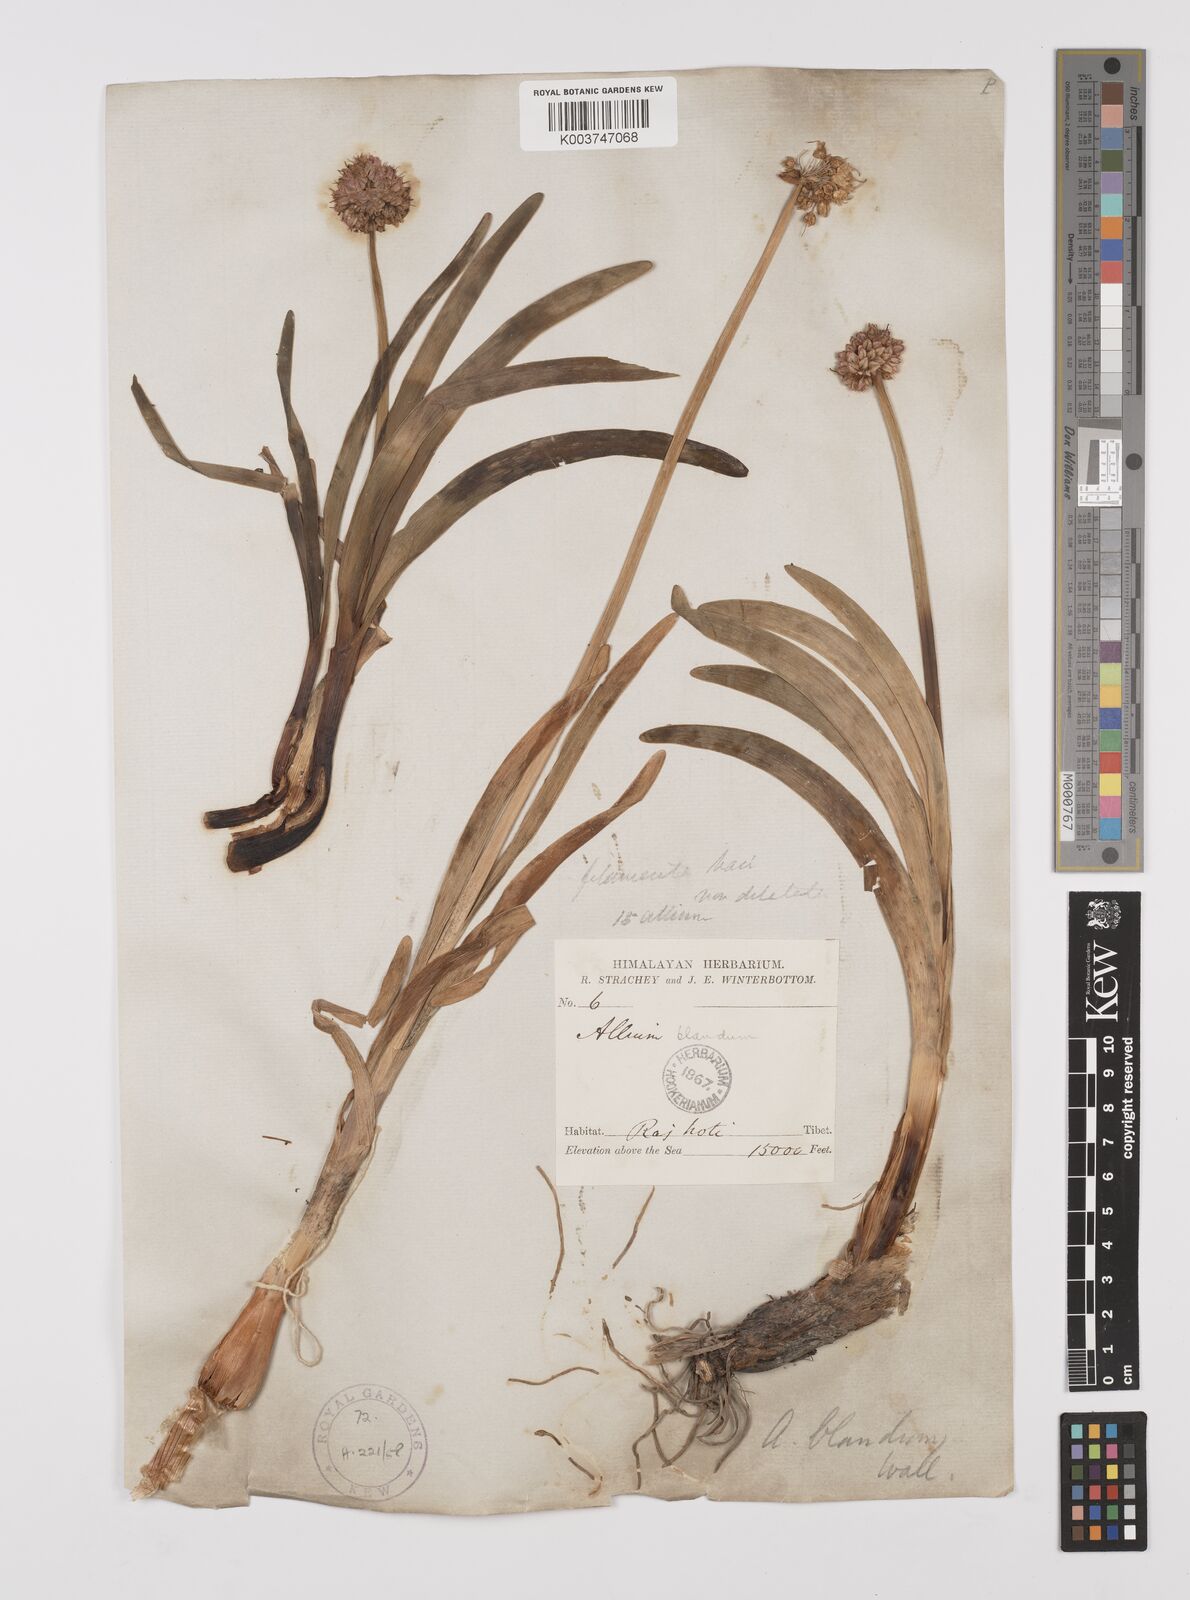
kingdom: Plantae
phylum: Tracheophyta
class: Liliopsida
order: Asparagales
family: Amaryllidaceae
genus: Allium
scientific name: Allium carolinianum
